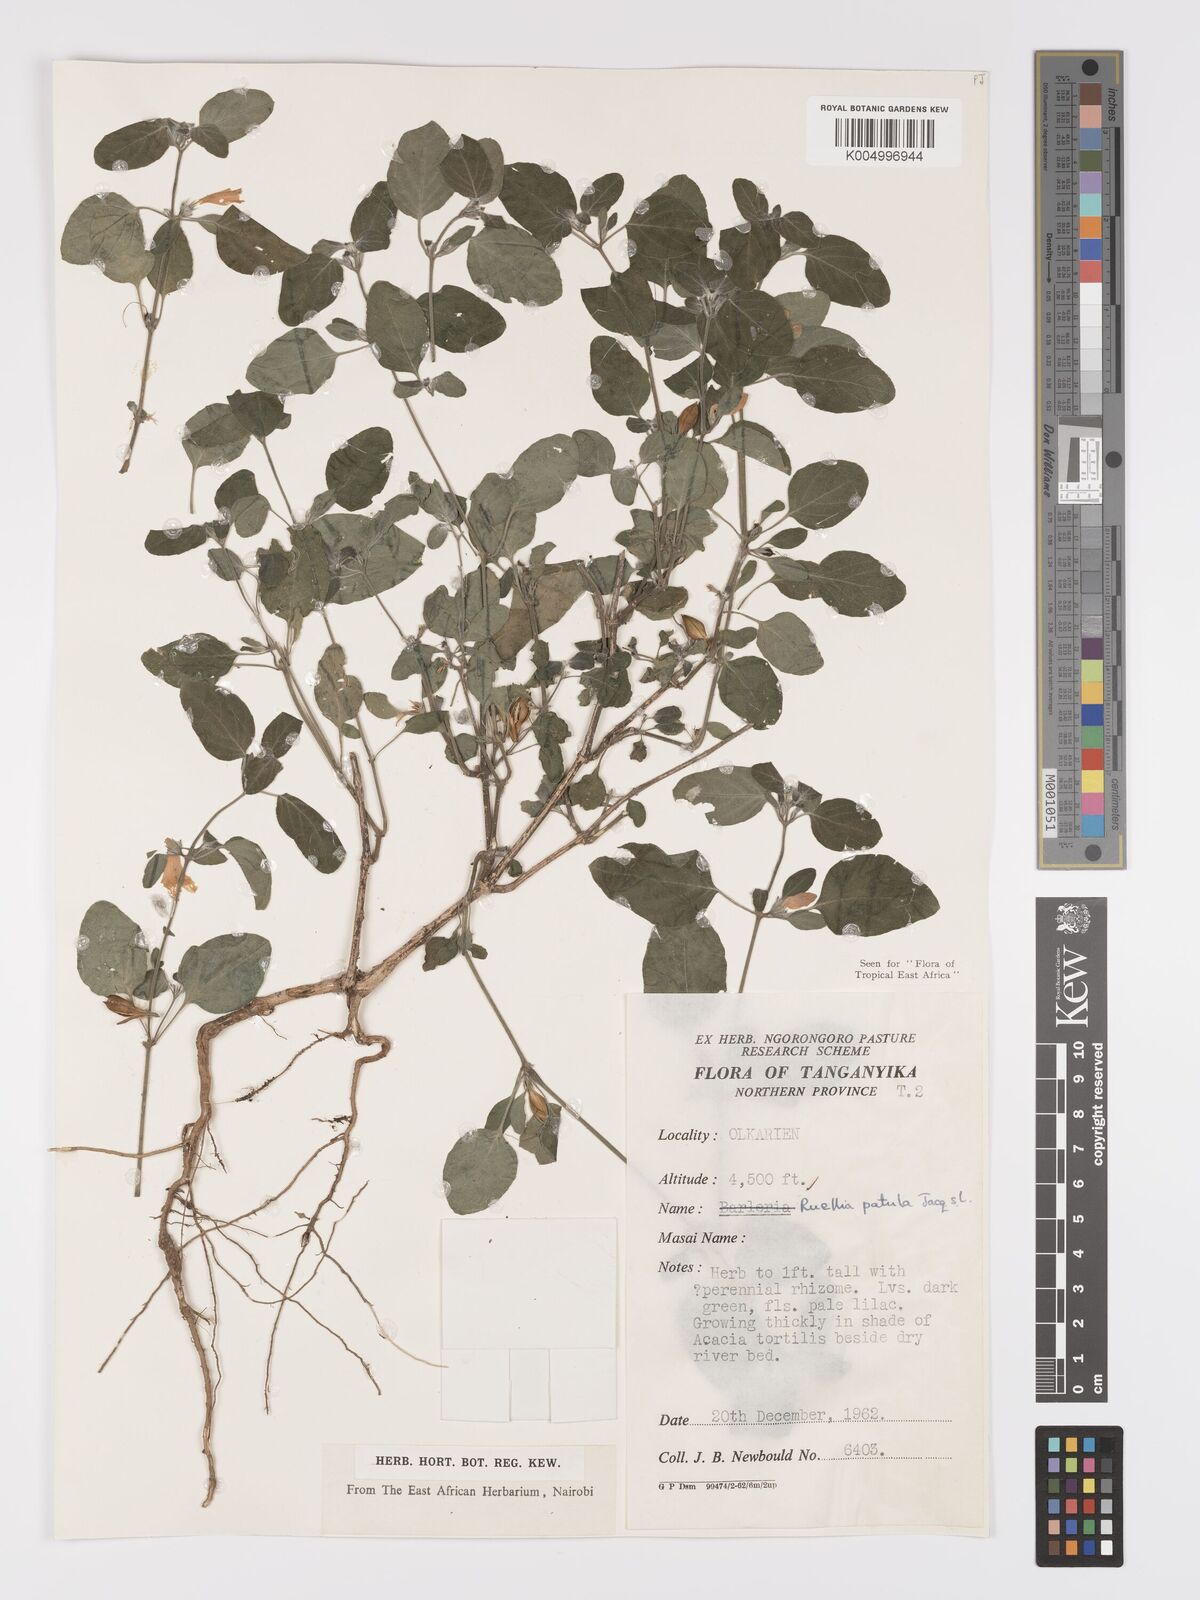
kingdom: Plantae
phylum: Tracheophyta
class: Magnoliopsida
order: Lamiales
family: Acanthaceae
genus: Ruellia
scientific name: Ruellia patula
